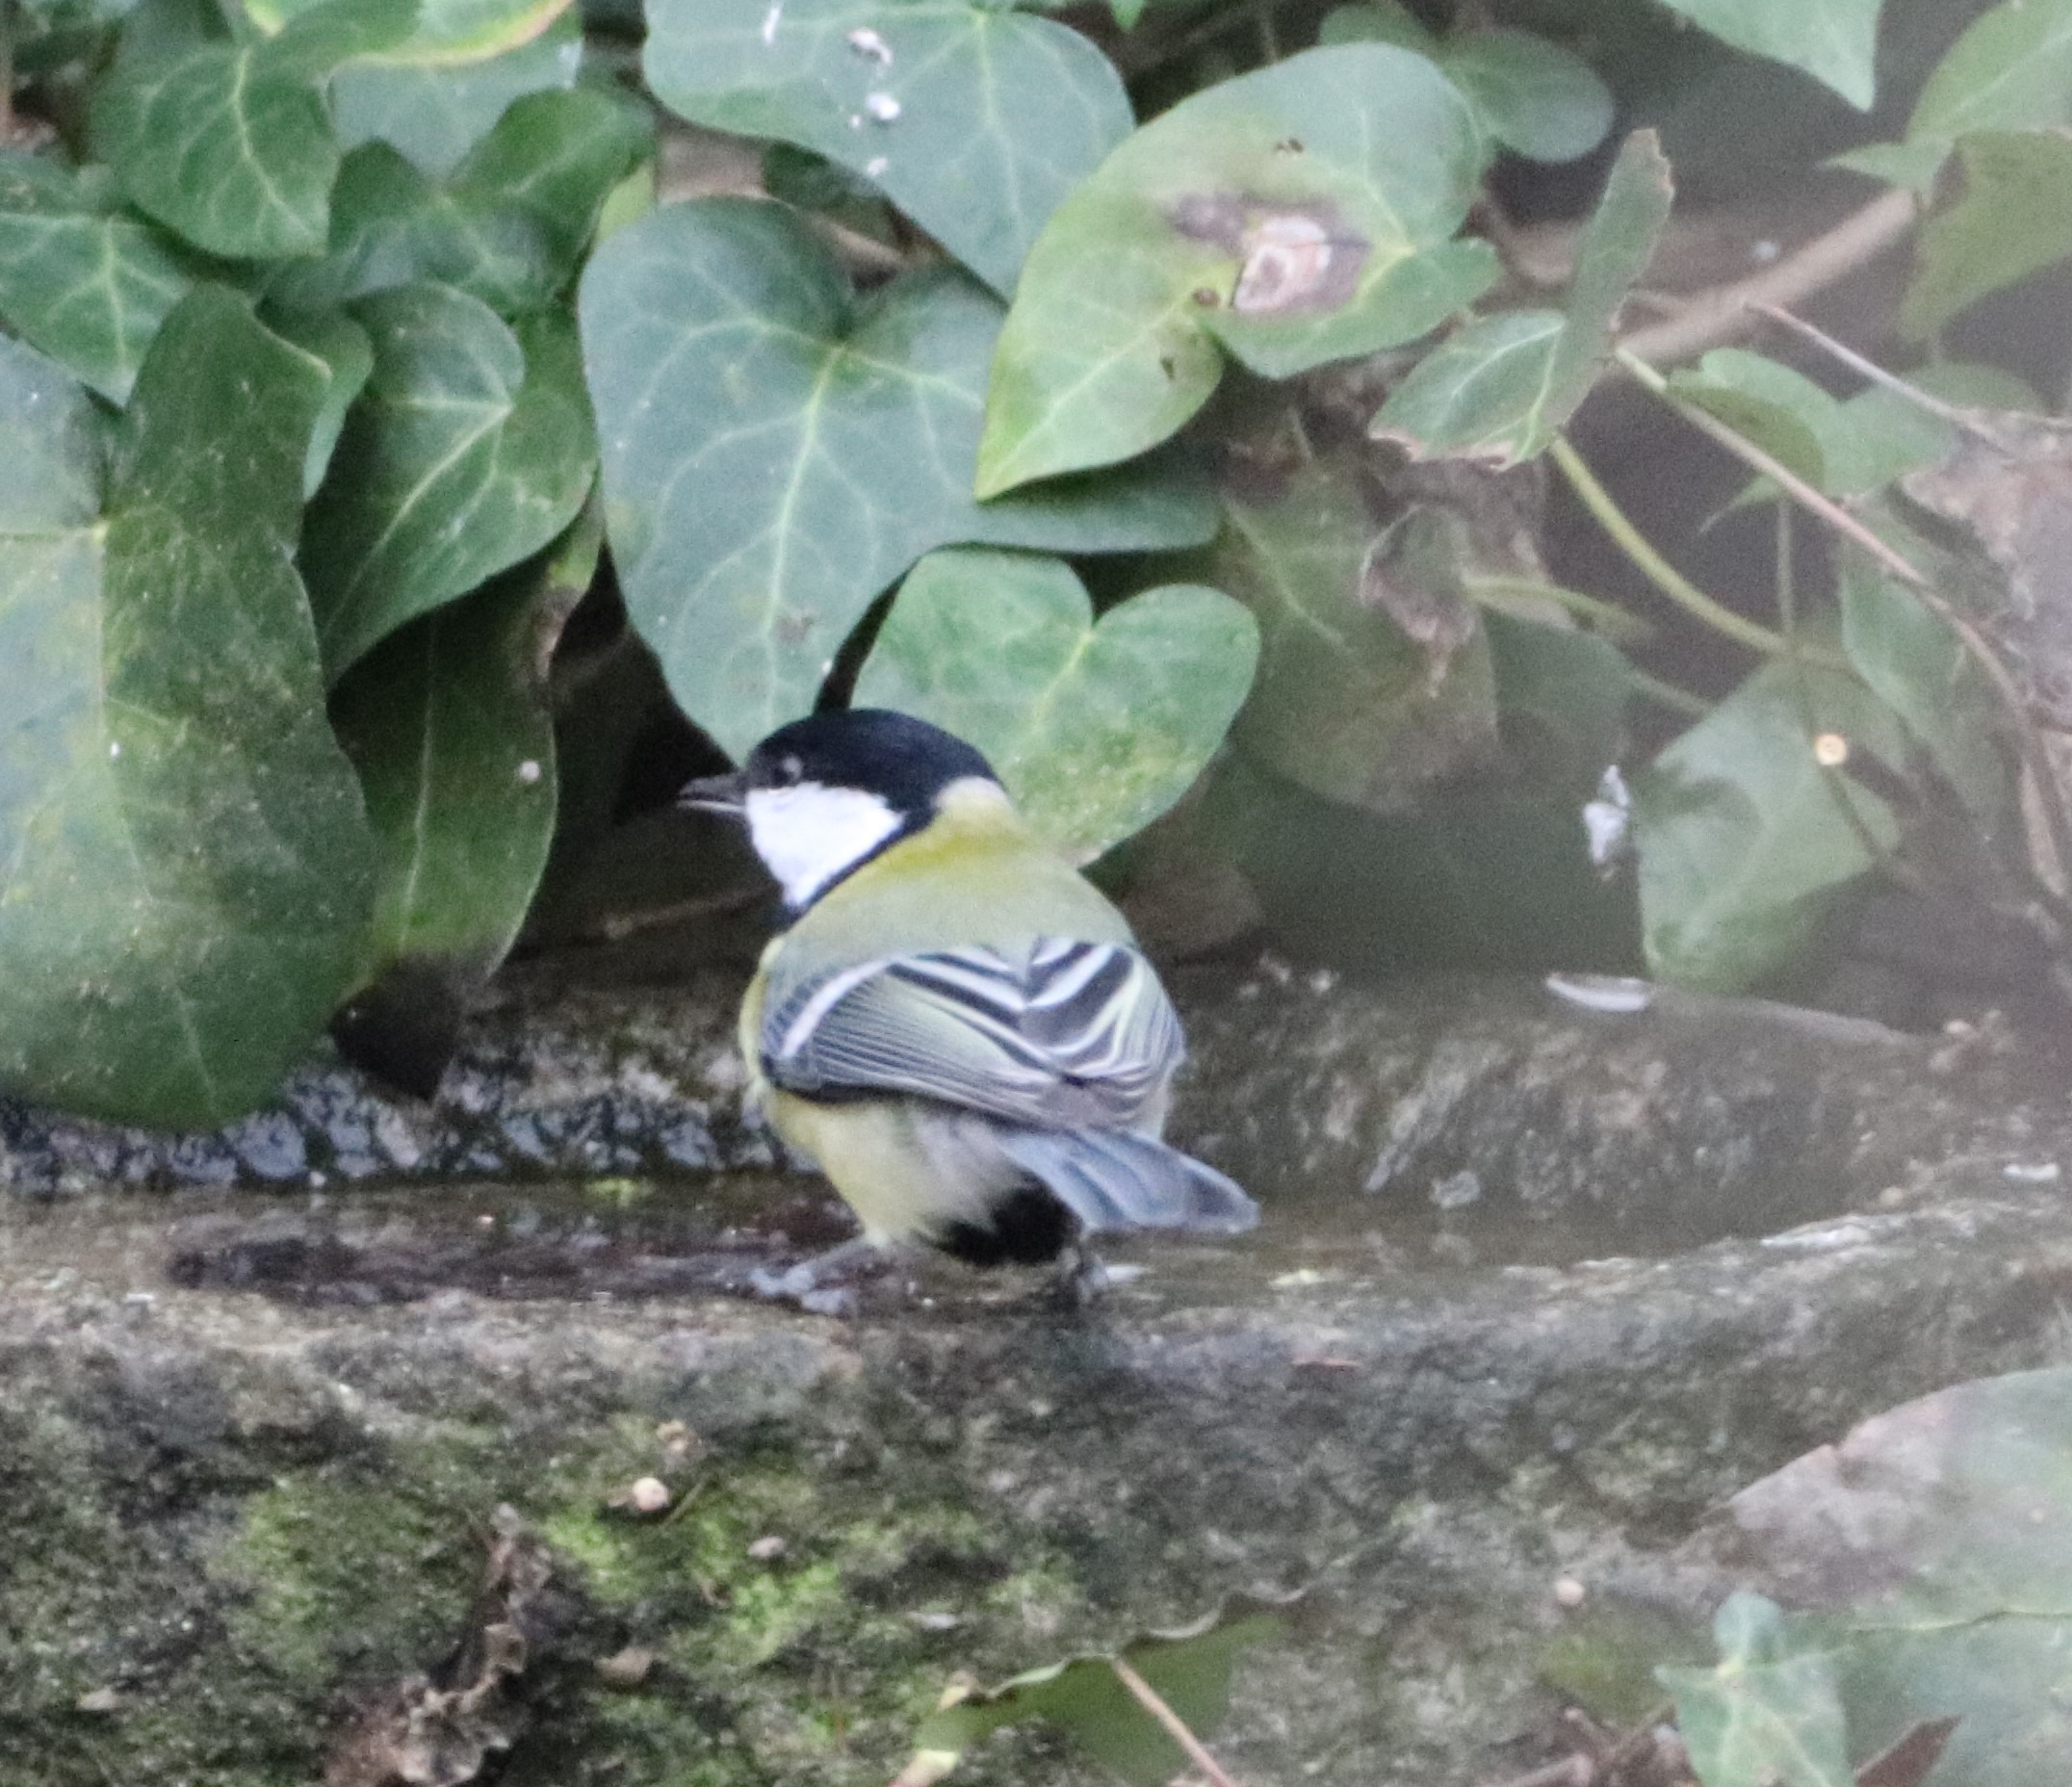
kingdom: Animalia
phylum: Chordata
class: Aves
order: Passeriformes
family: Paridae
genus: Parus
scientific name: Parus major
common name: Musvit
